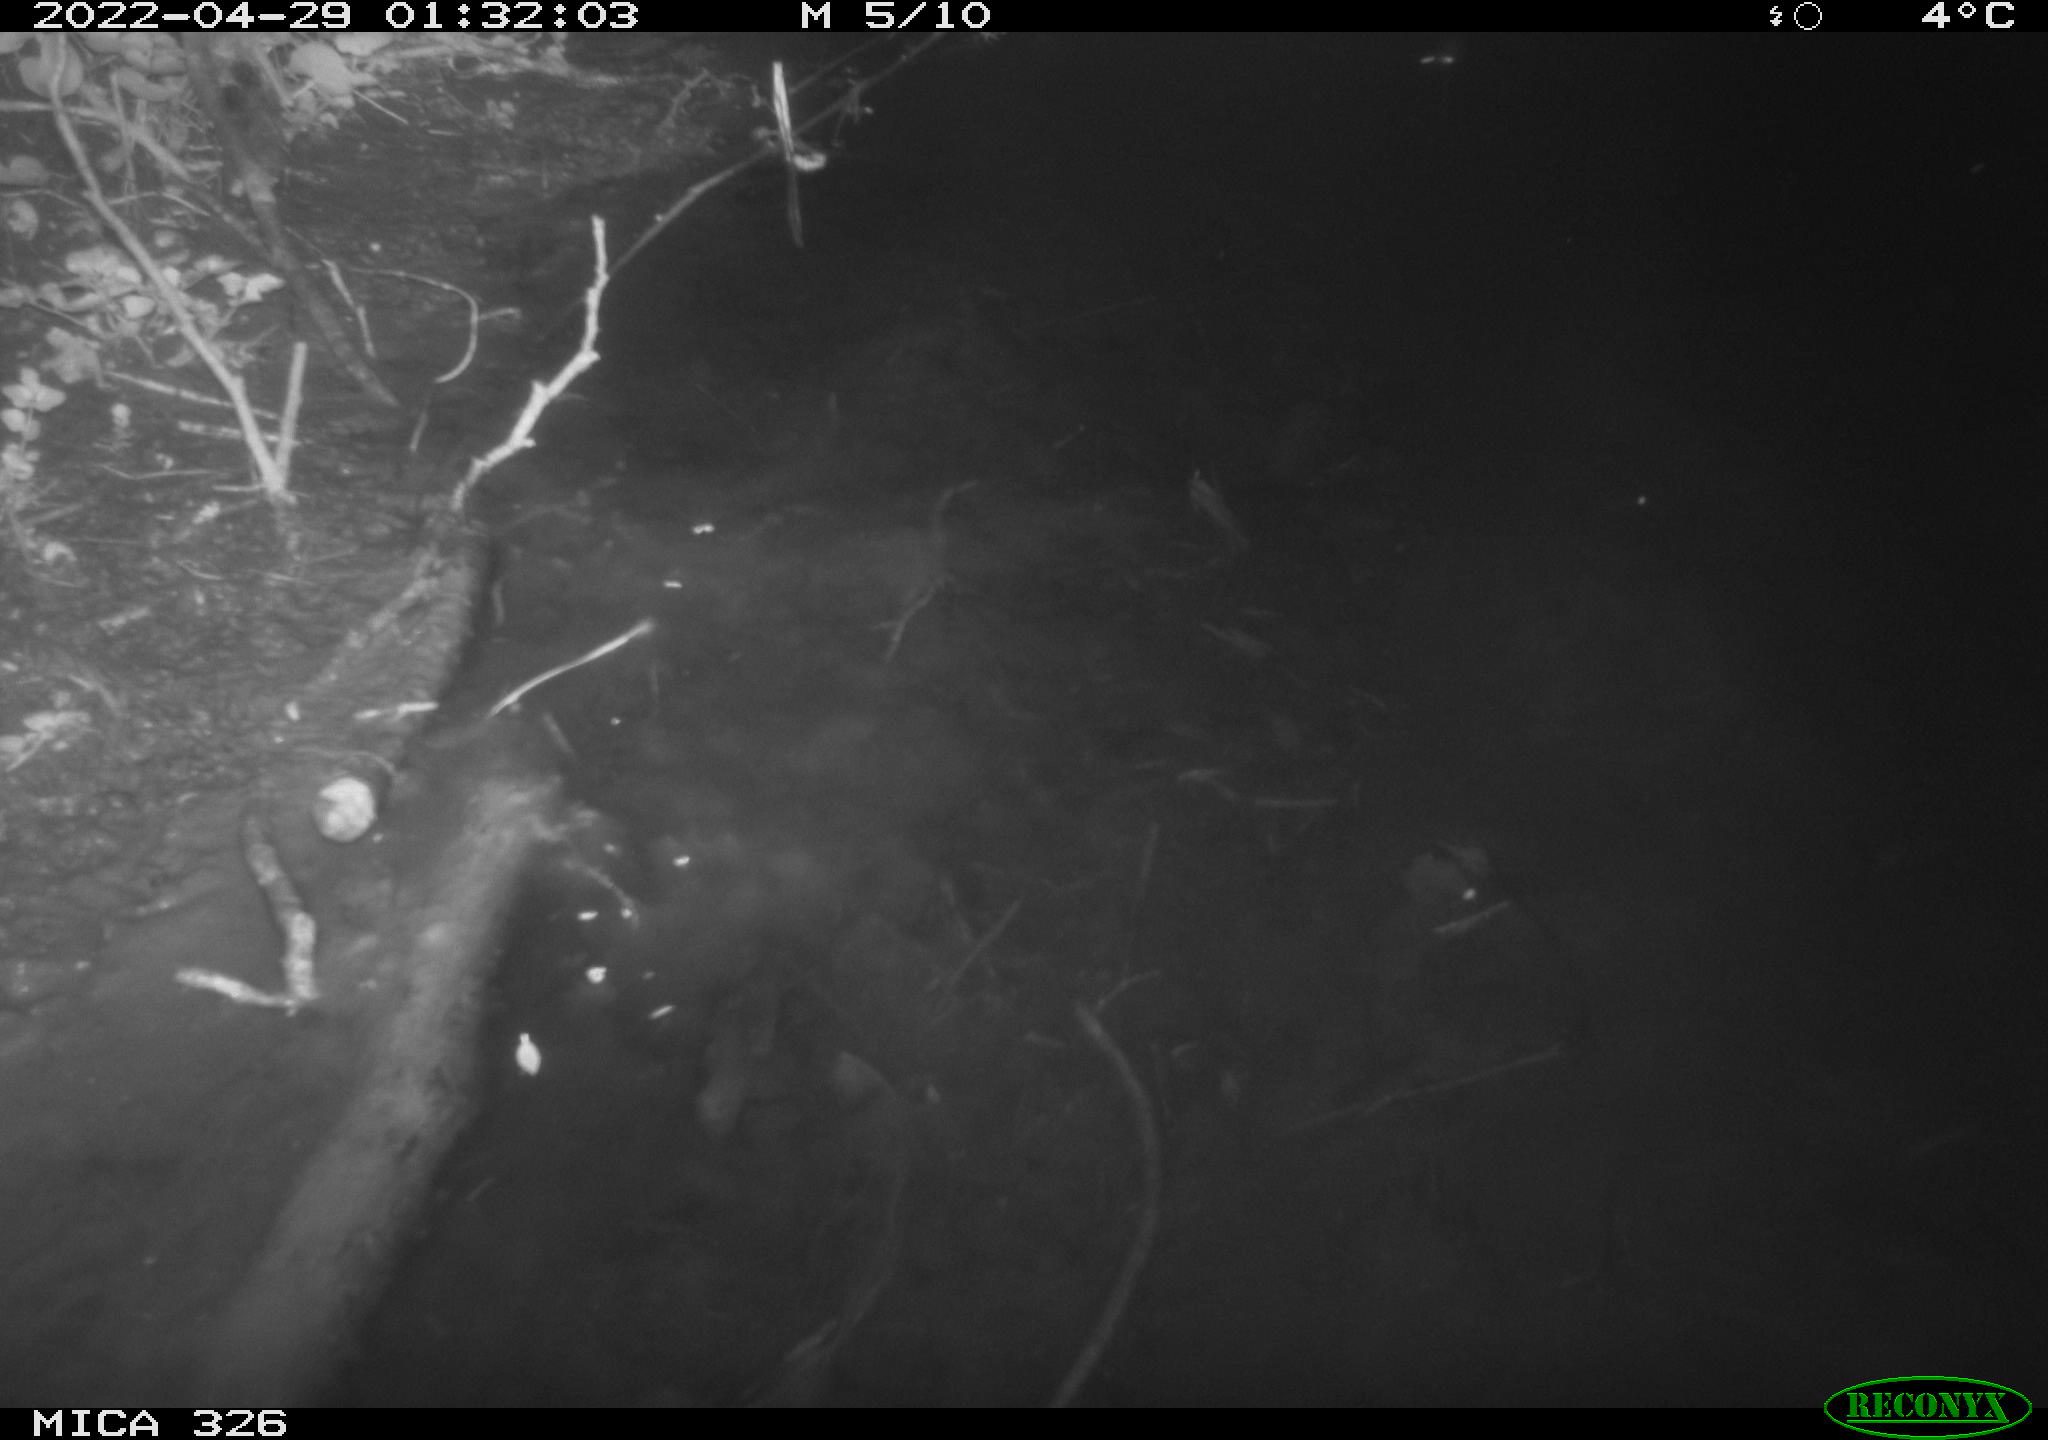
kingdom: Animalia
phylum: Chordata
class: Mammalia
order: Rodentia
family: Muridae
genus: Rattus
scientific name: Rattus norvegicus
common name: Brown rat
